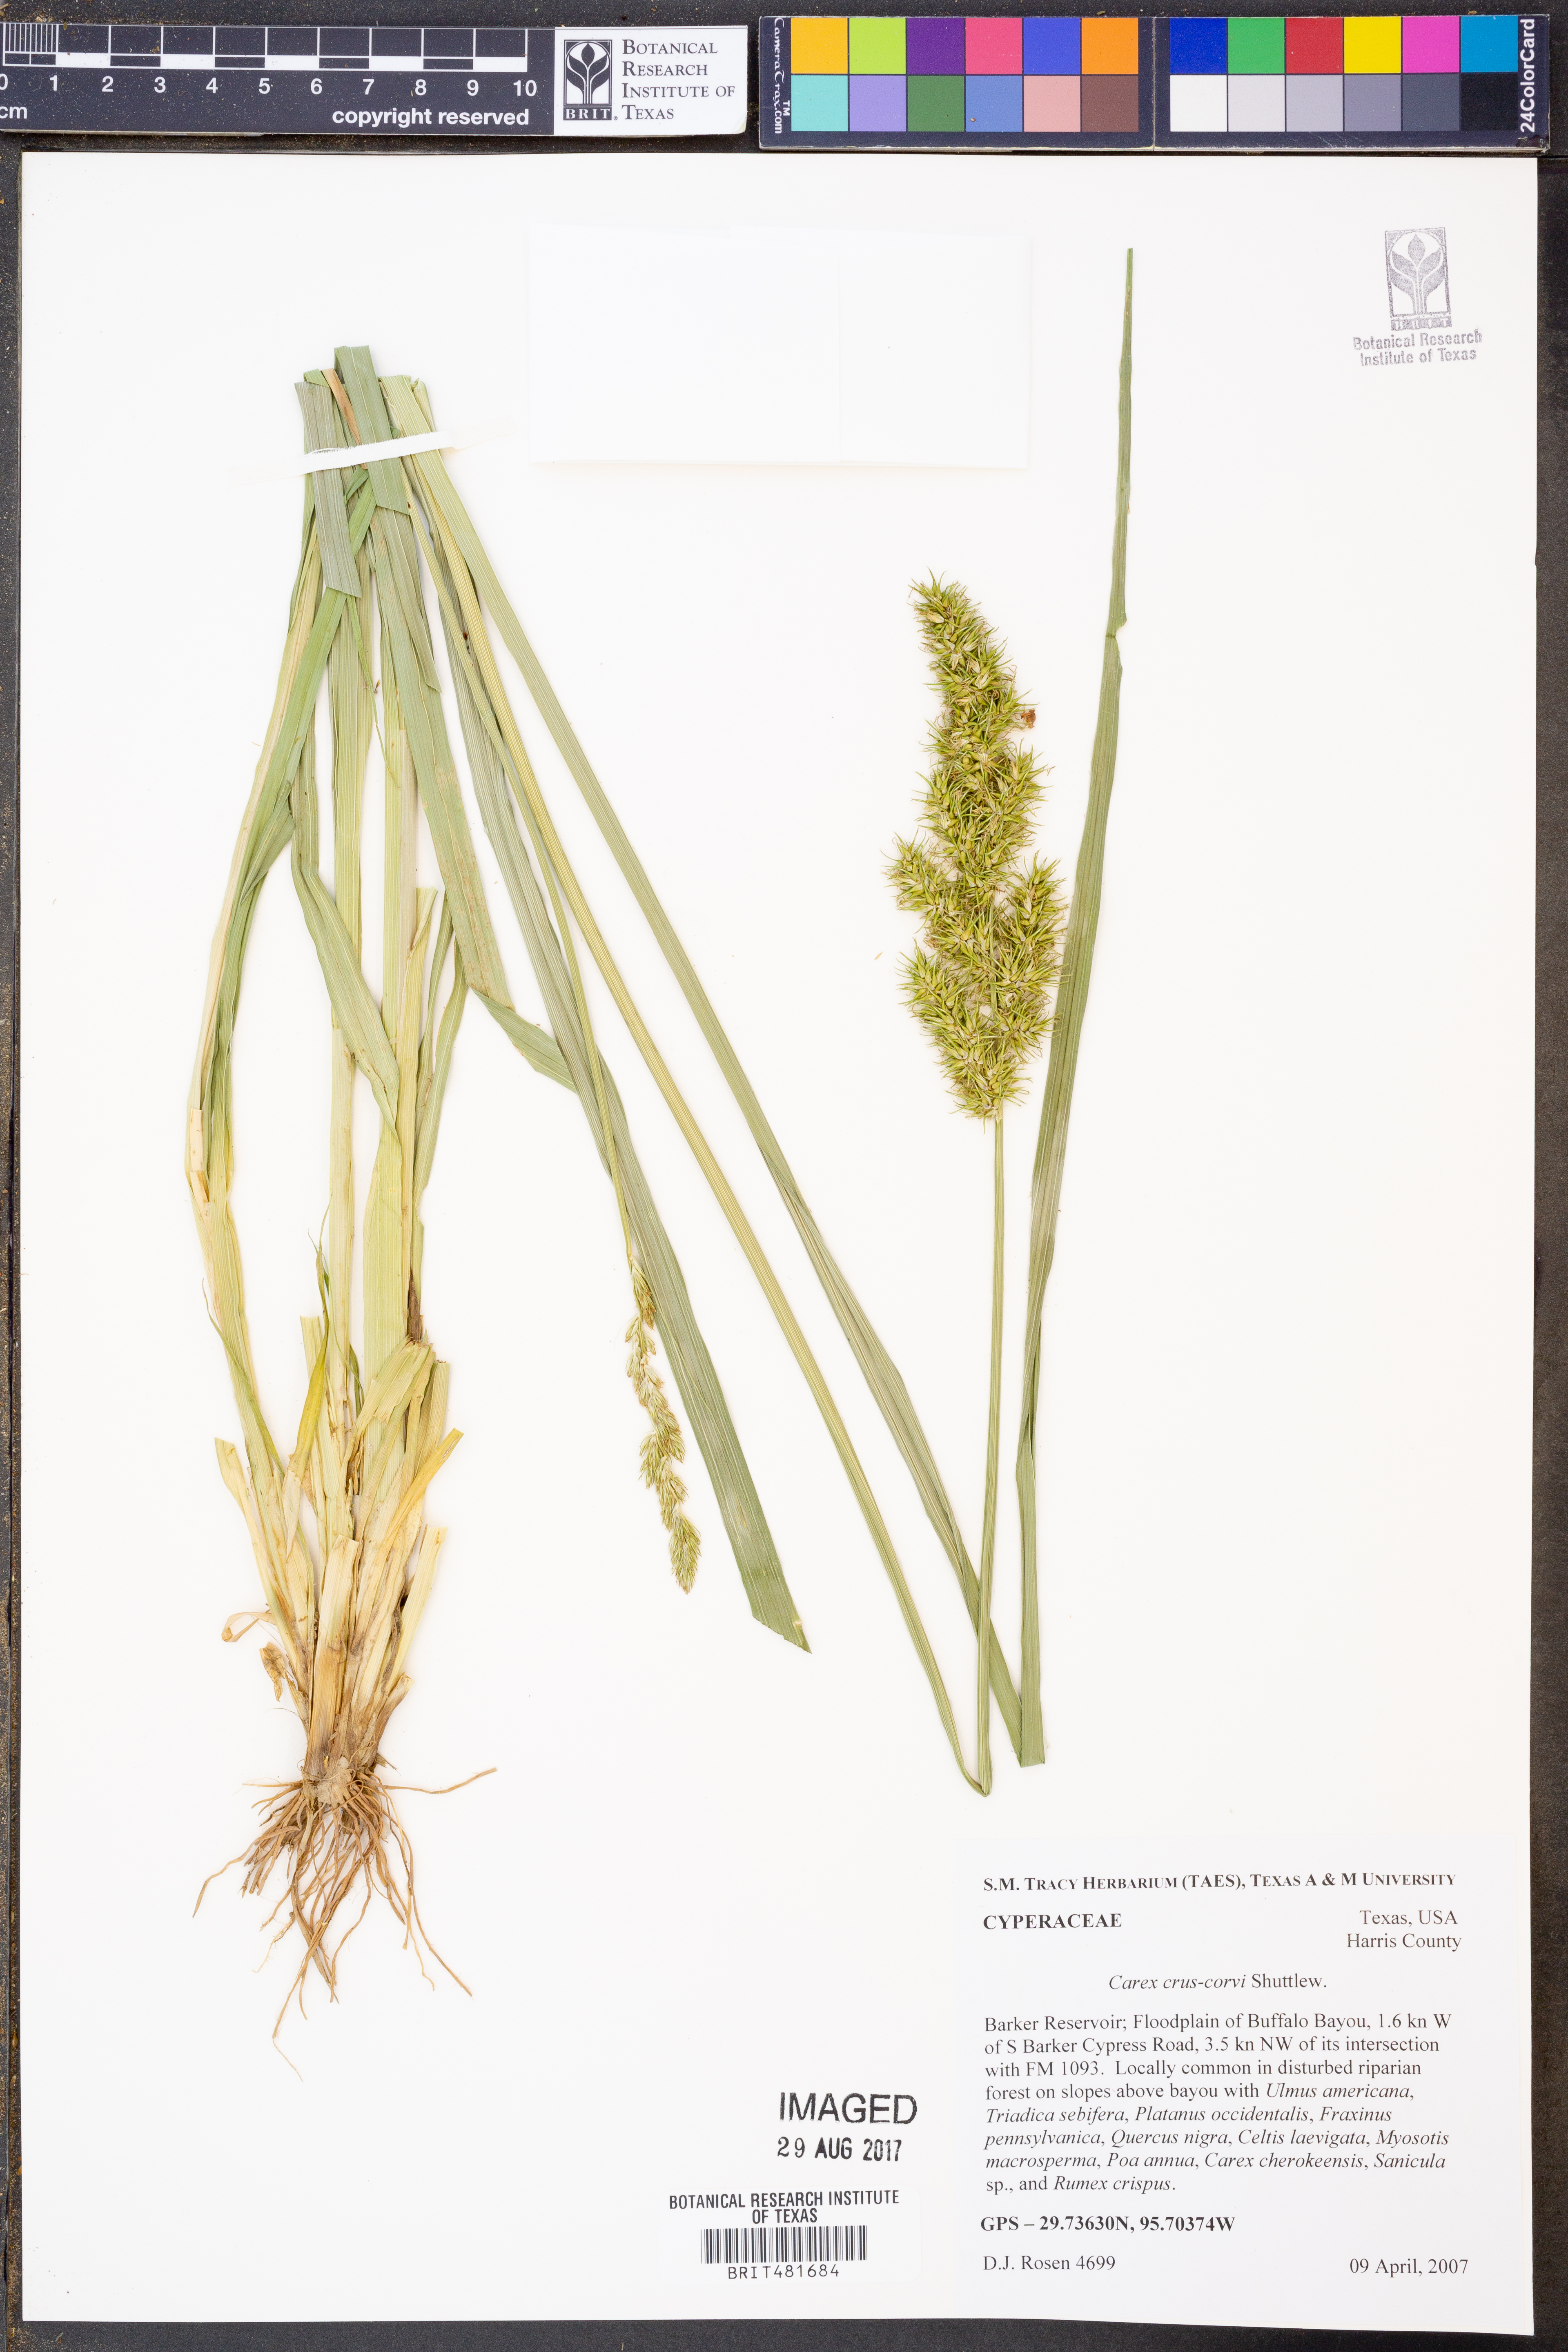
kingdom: Plantae
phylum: Tracheophyta
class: Liliopsida
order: Poales
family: Cyperaceae
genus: Carex
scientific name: Carex crus-corvi
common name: Crow-spur sedge
